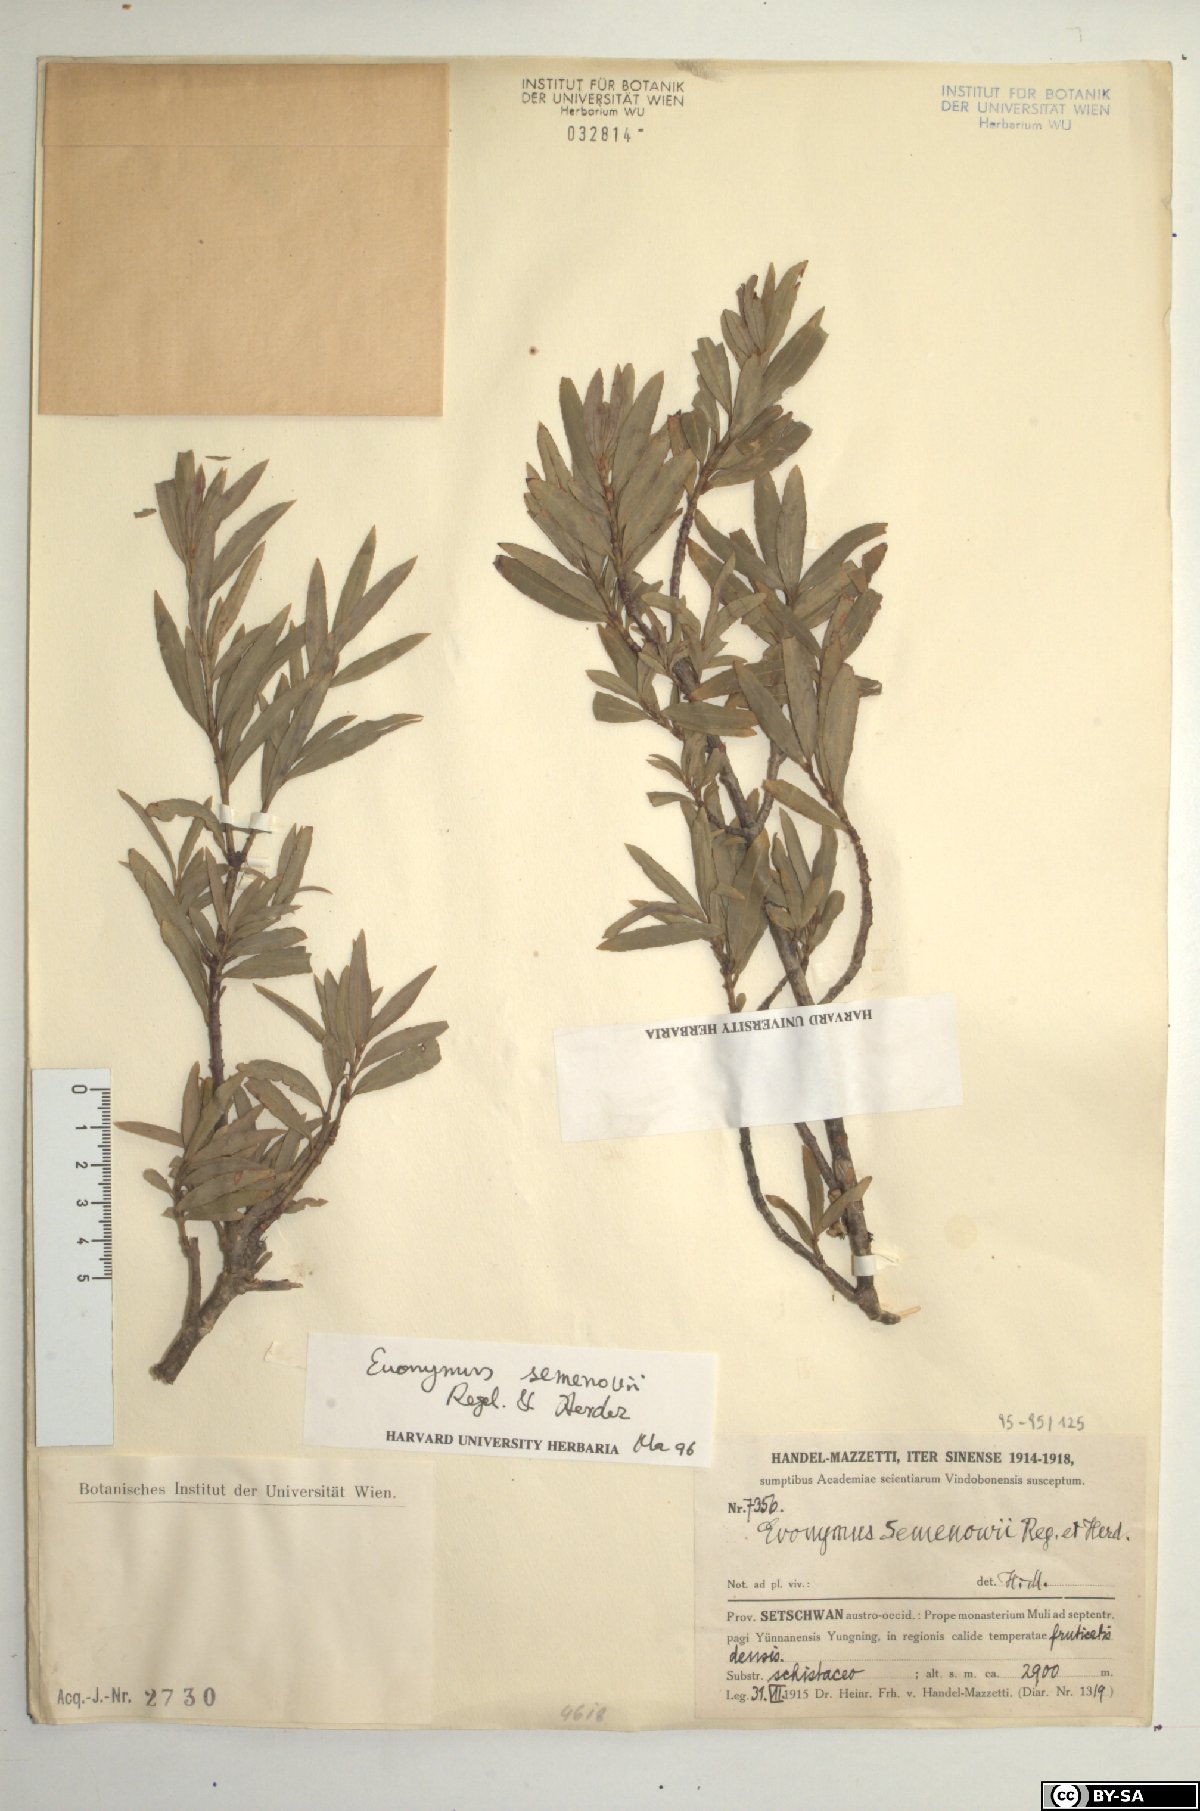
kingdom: Plantae
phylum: Tracheophyta
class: Magnoliopsida
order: Celastrales
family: Celastraceae
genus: Euonymus
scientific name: Euonymus semenovii
